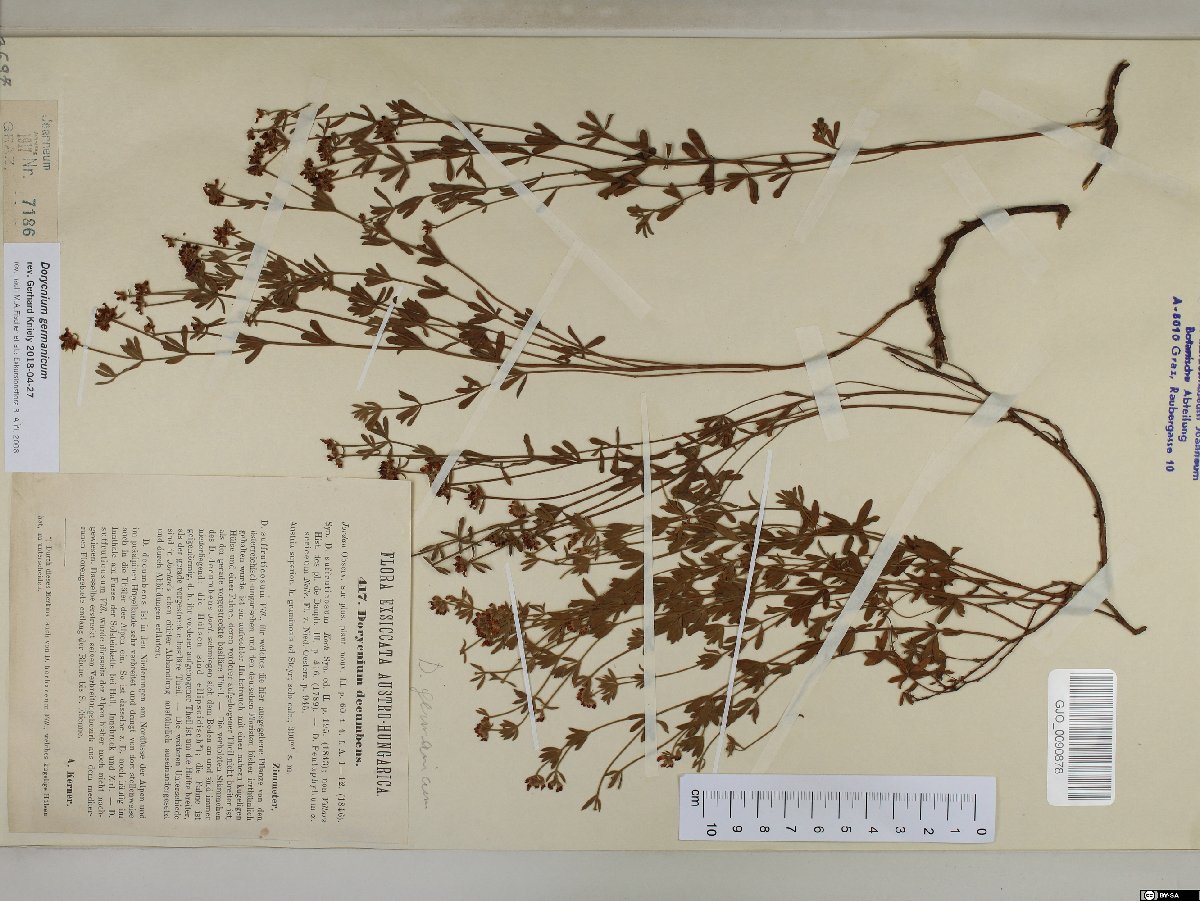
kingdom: Plantae
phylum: Tracheophyta
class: Magnoliopsida
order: Fabales
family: Fabaceae
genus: Lotus
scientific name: Lotus germanicus
